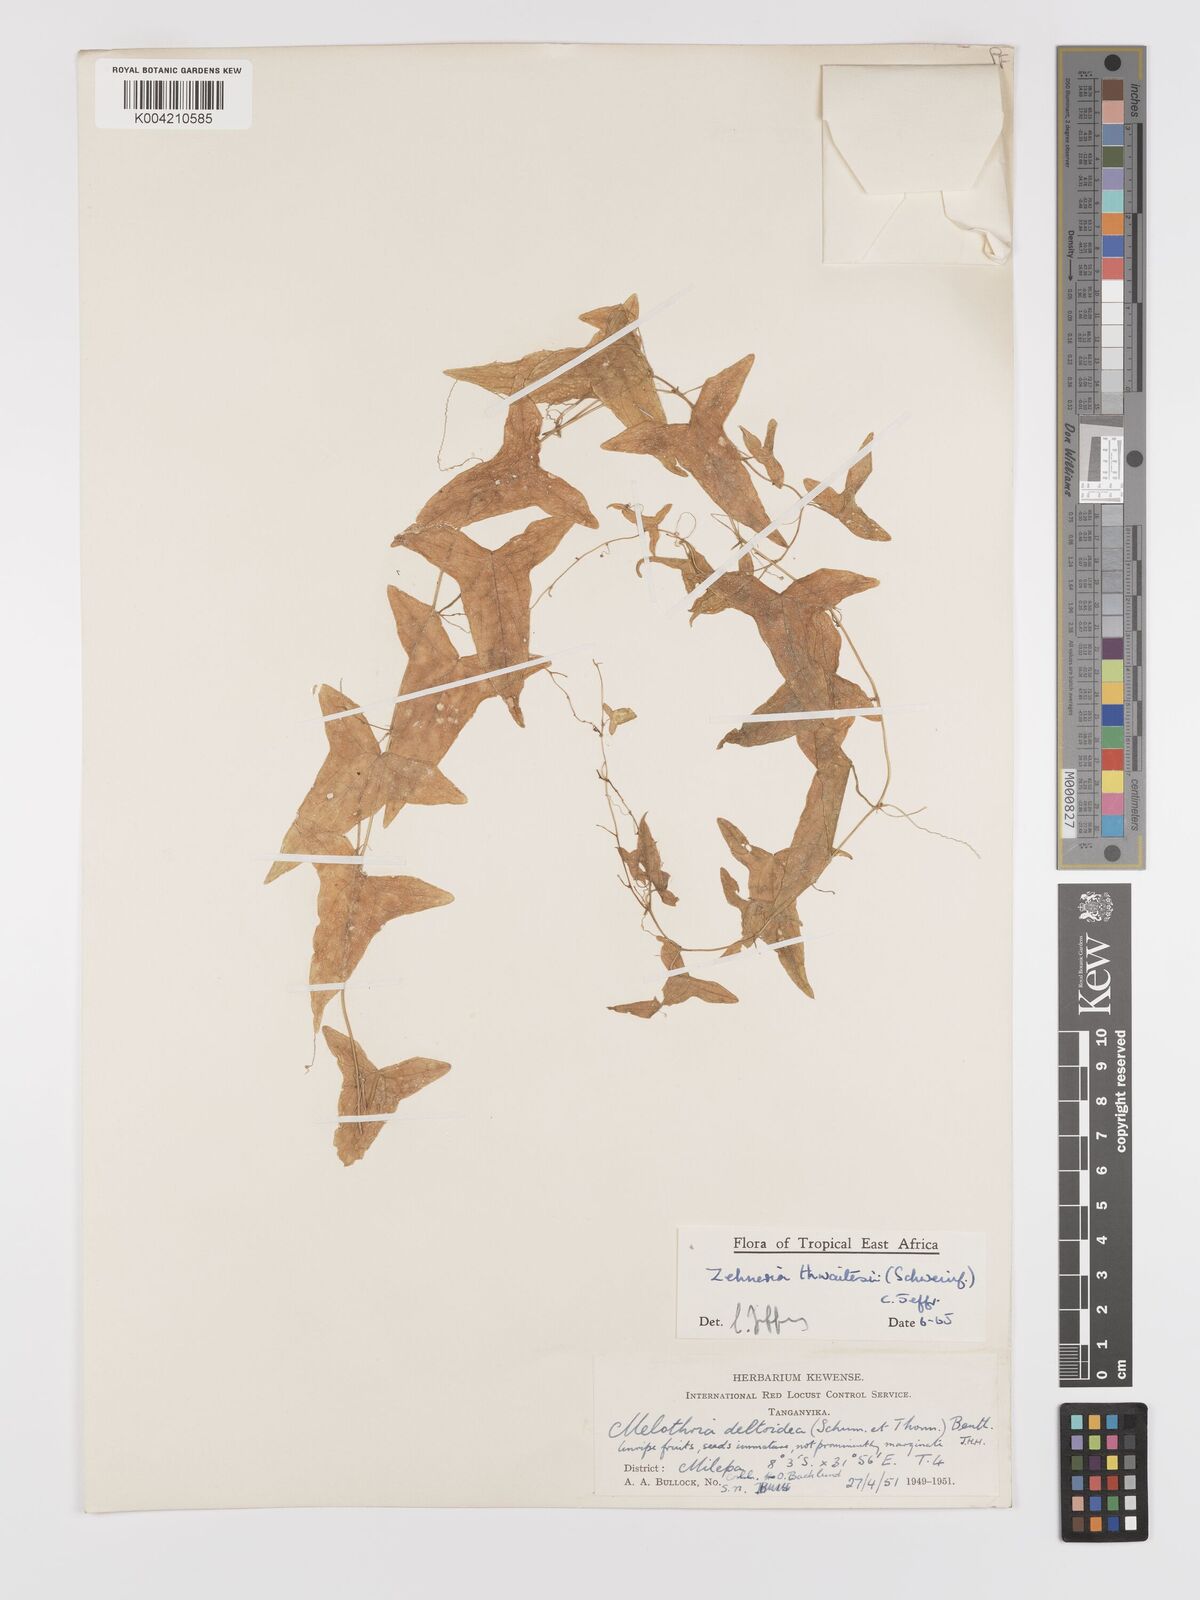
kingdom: Plantae
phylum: Tracheophyta
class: Magnoliopsida
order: Cucurbitales
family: Cucurbitaceae
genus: Zehneria
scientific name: Zehneria thwaitesii
